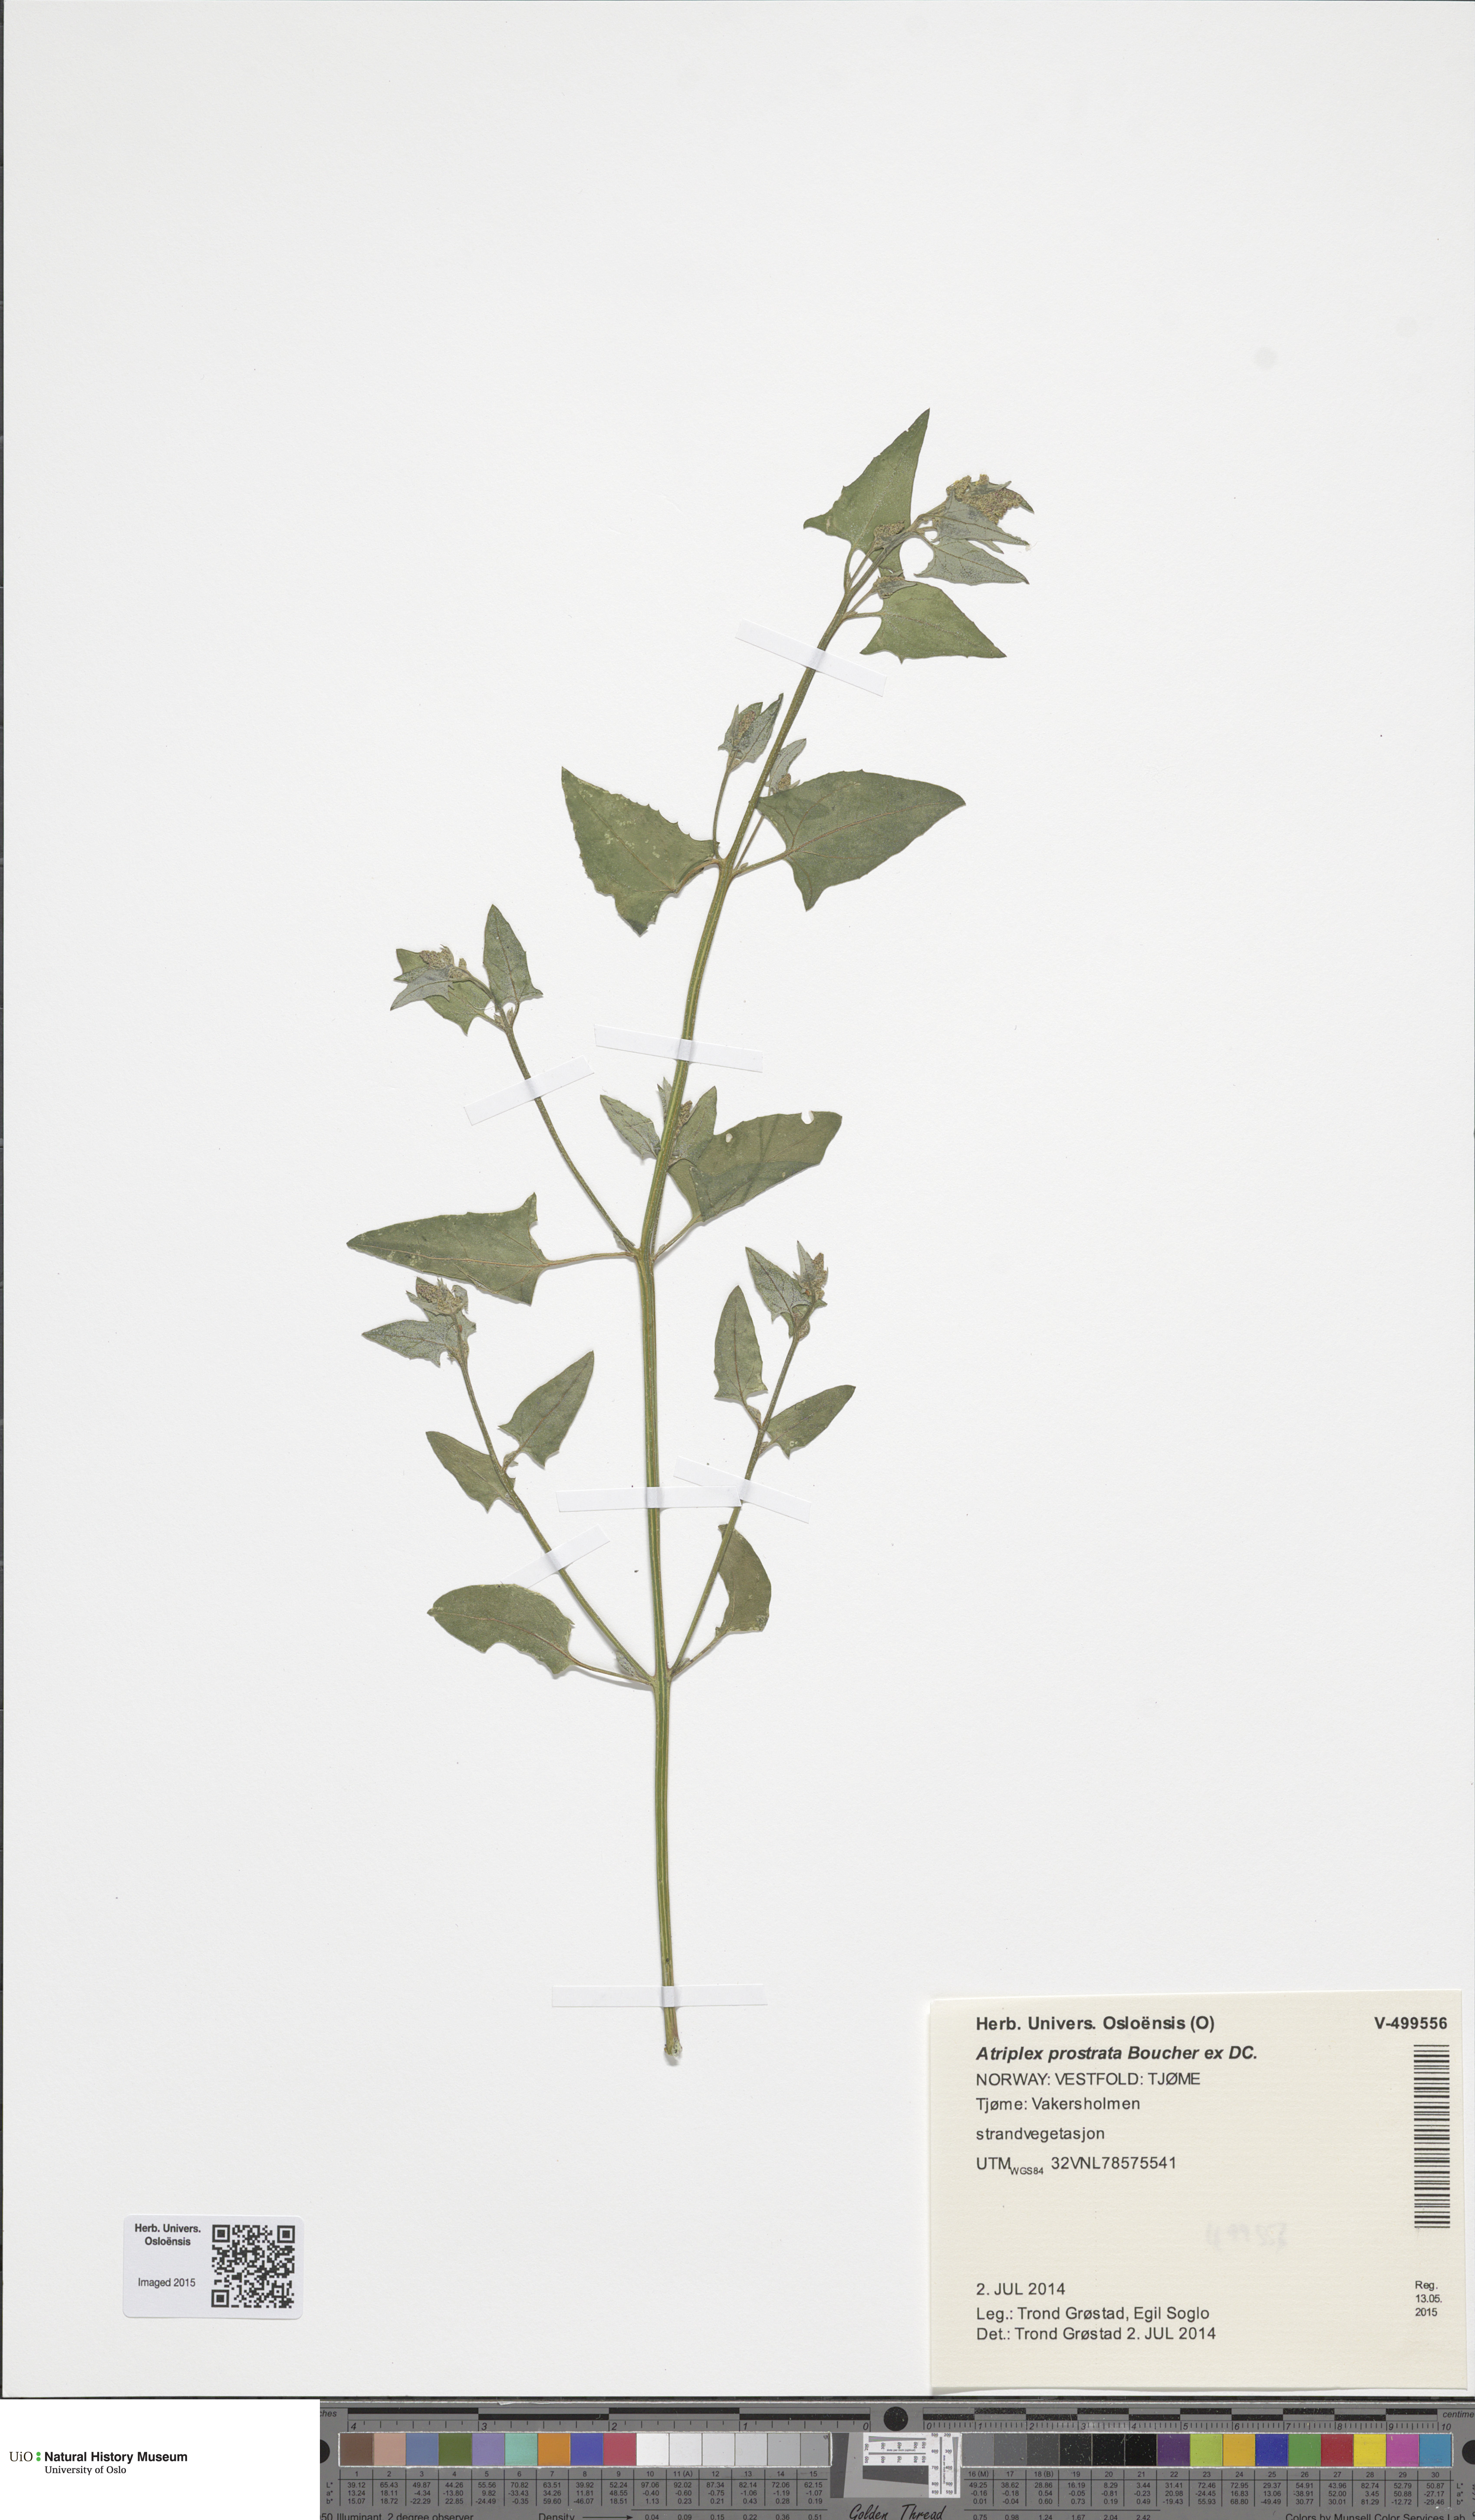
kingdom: Plantae
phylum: Tracheophyta
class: Magnoliopsida
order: Caryophyllales
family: Amaranthaceae
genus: Atriplex
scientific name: Atriplex prostrata
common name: Spear-leaved orache
